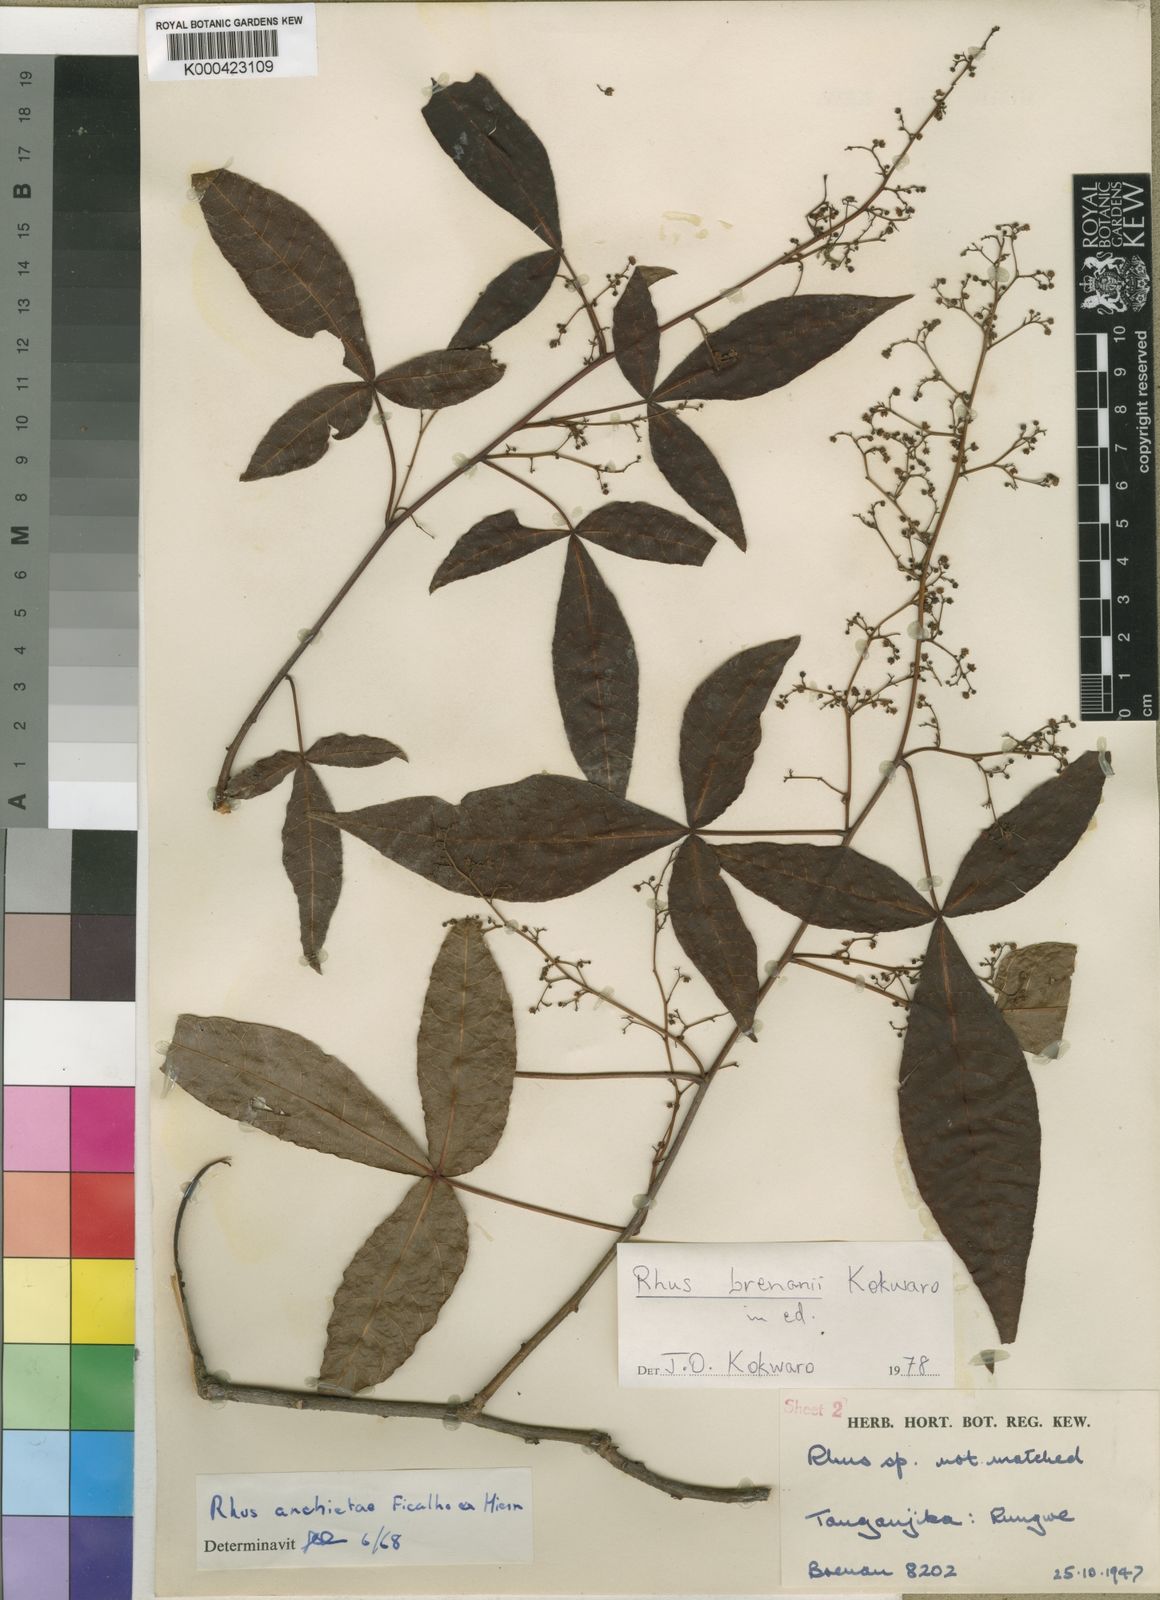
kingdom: Plantae
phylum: Tracheophyta
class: Magnoliopsida
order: Sapindales
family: Anacardiaceae
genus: Searsia
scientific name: Searsia brenanii
